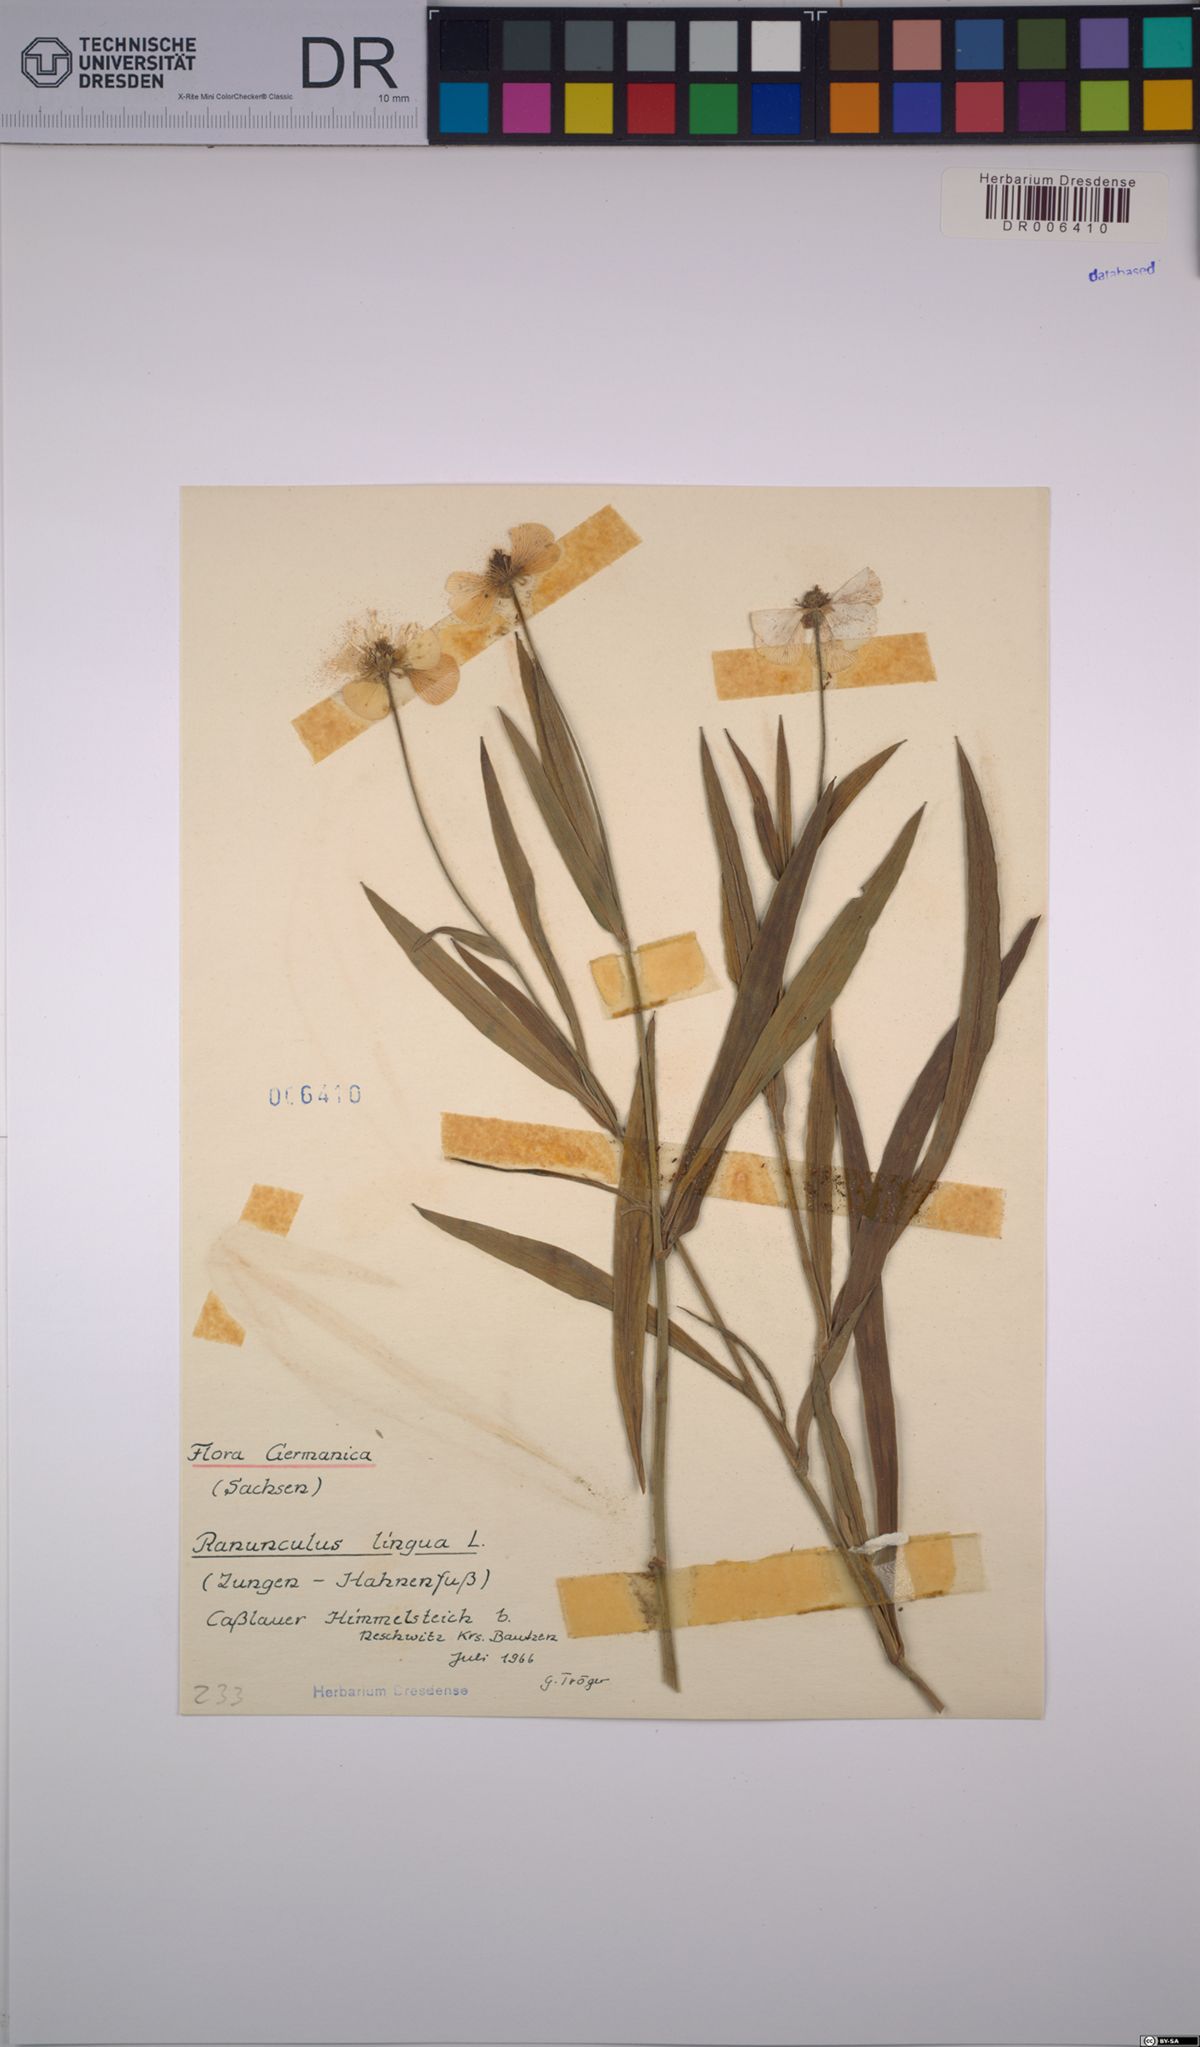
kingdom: Plantae
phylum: Tracheophyta
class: Magnoliopsida
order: Ranunculales
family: Ranunculaceae
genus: Ranunculus
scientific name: Ranunculus lingua
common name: Greater spearwort
